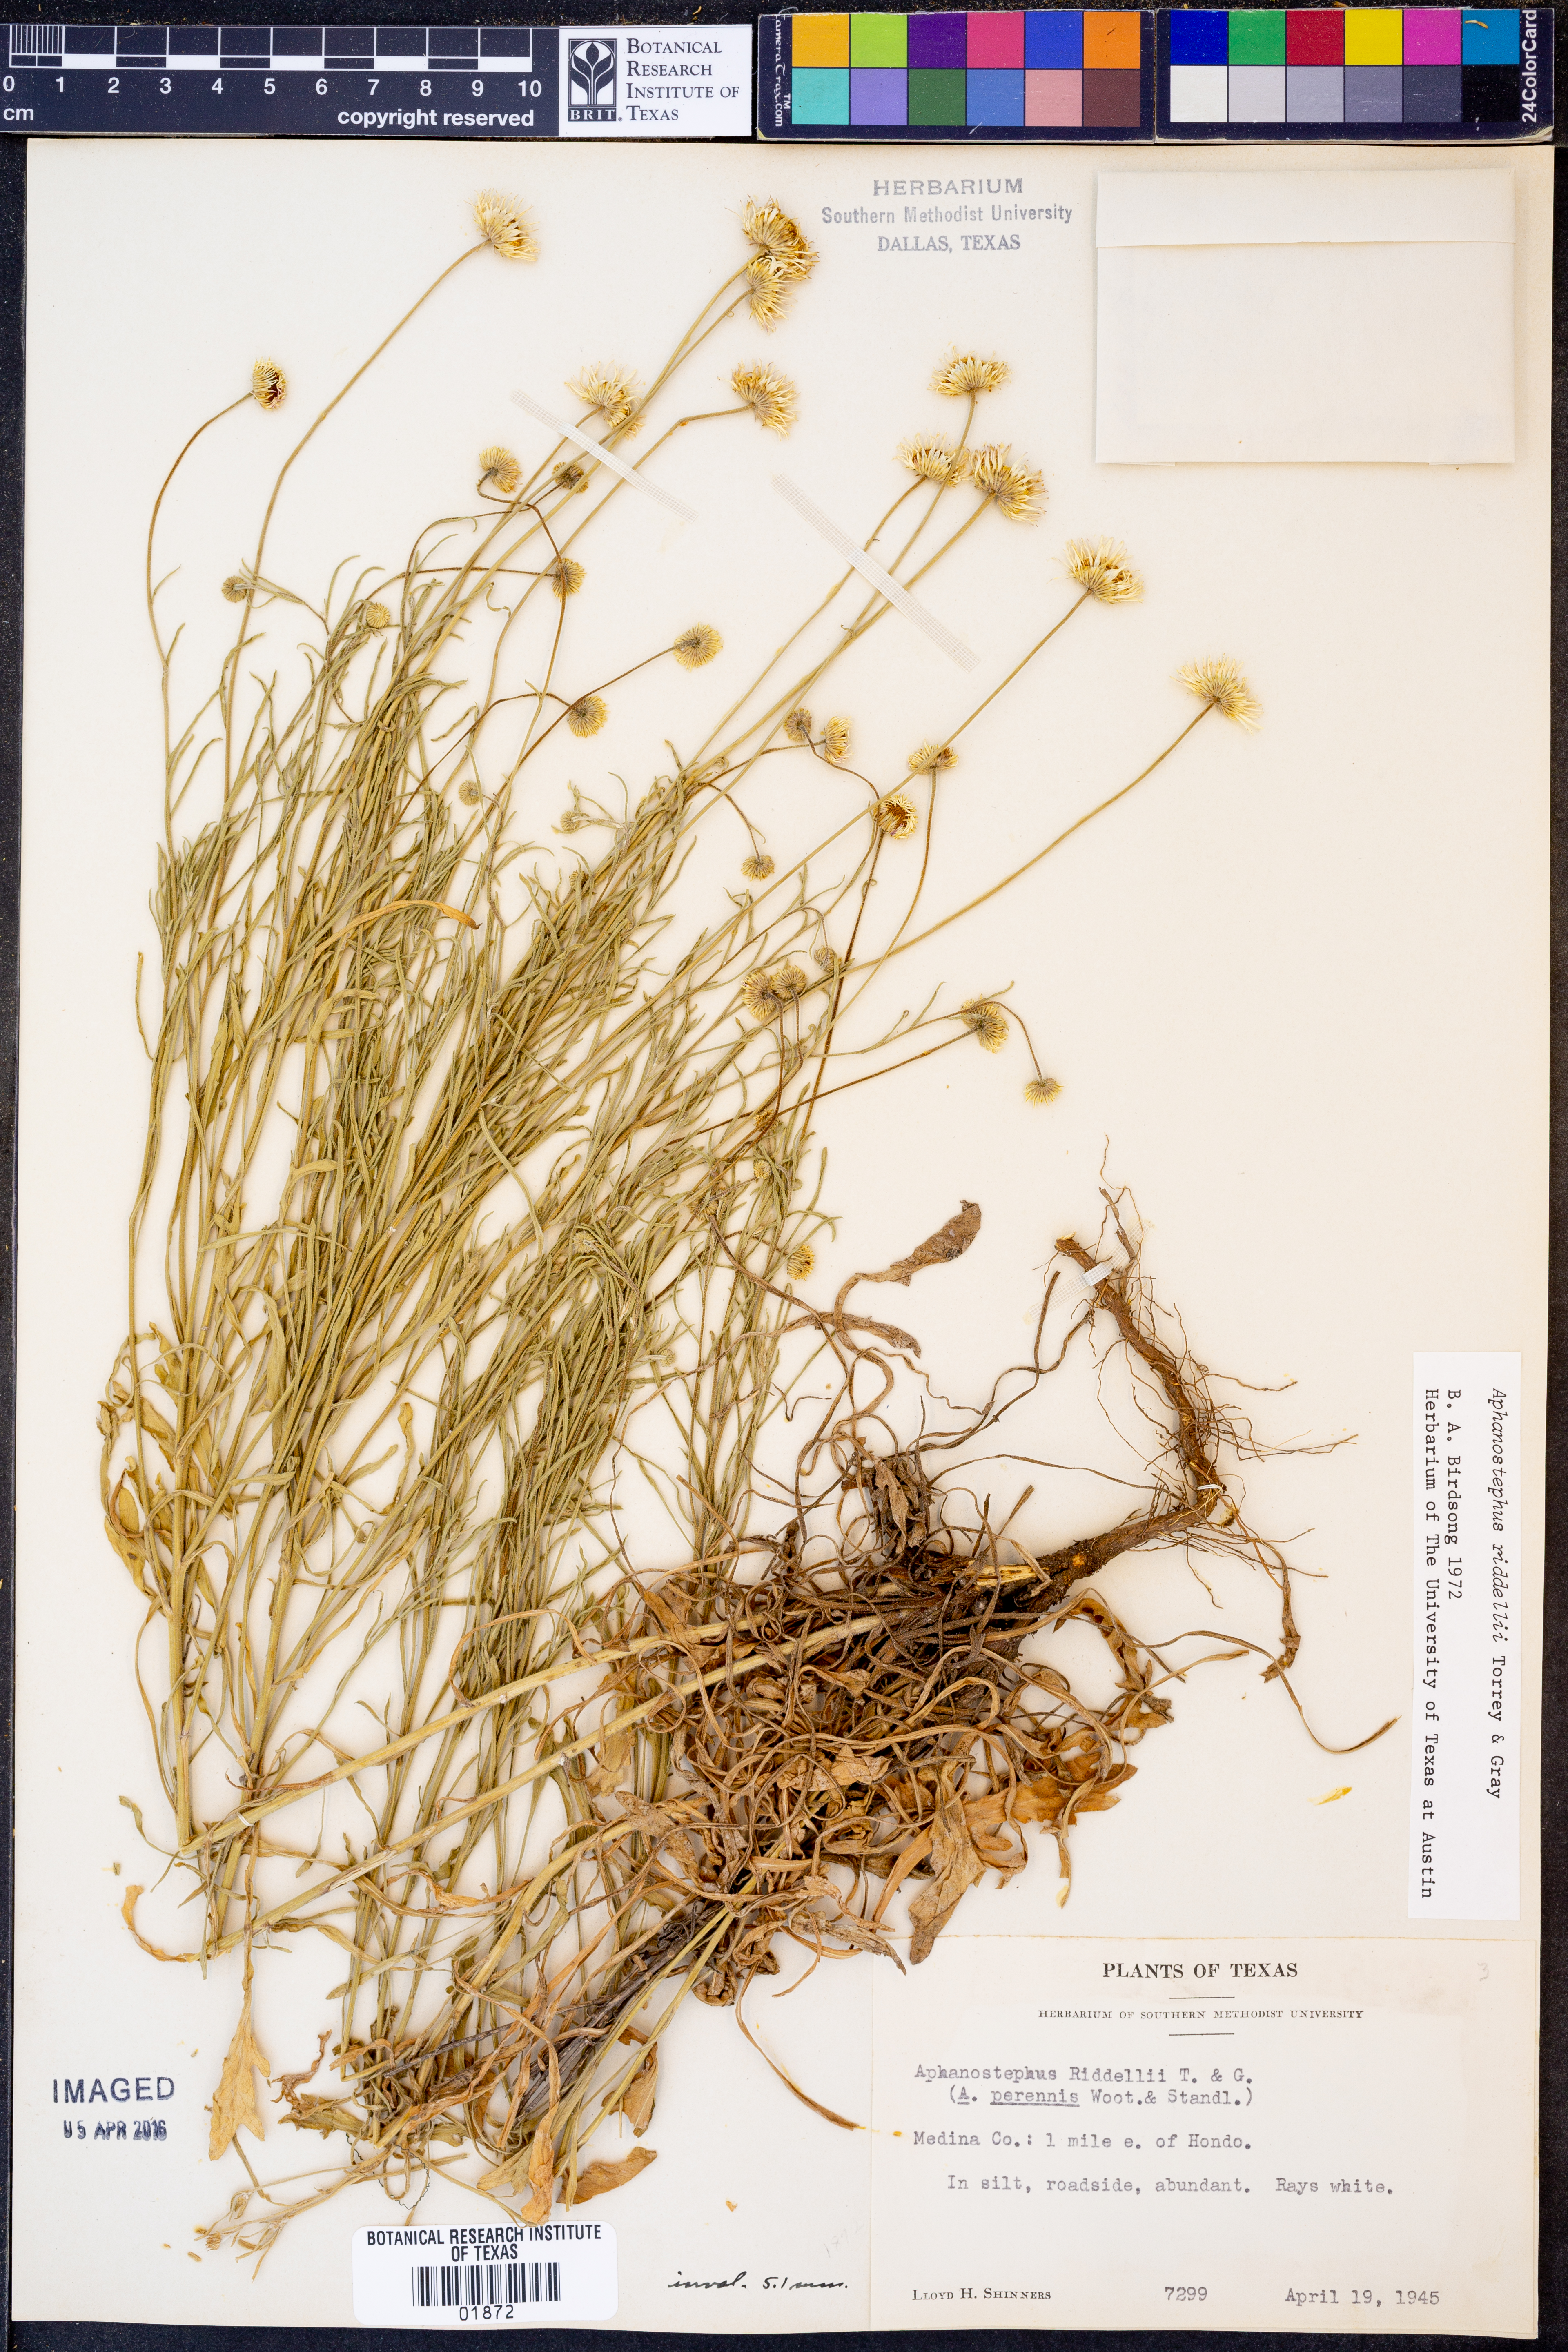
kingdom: Plantae
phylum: Tracheophyta
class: Magnoliopsida
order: Asterales
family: Asteraceae
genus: Aphanostephus
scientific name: Aphanostephus riddellii
